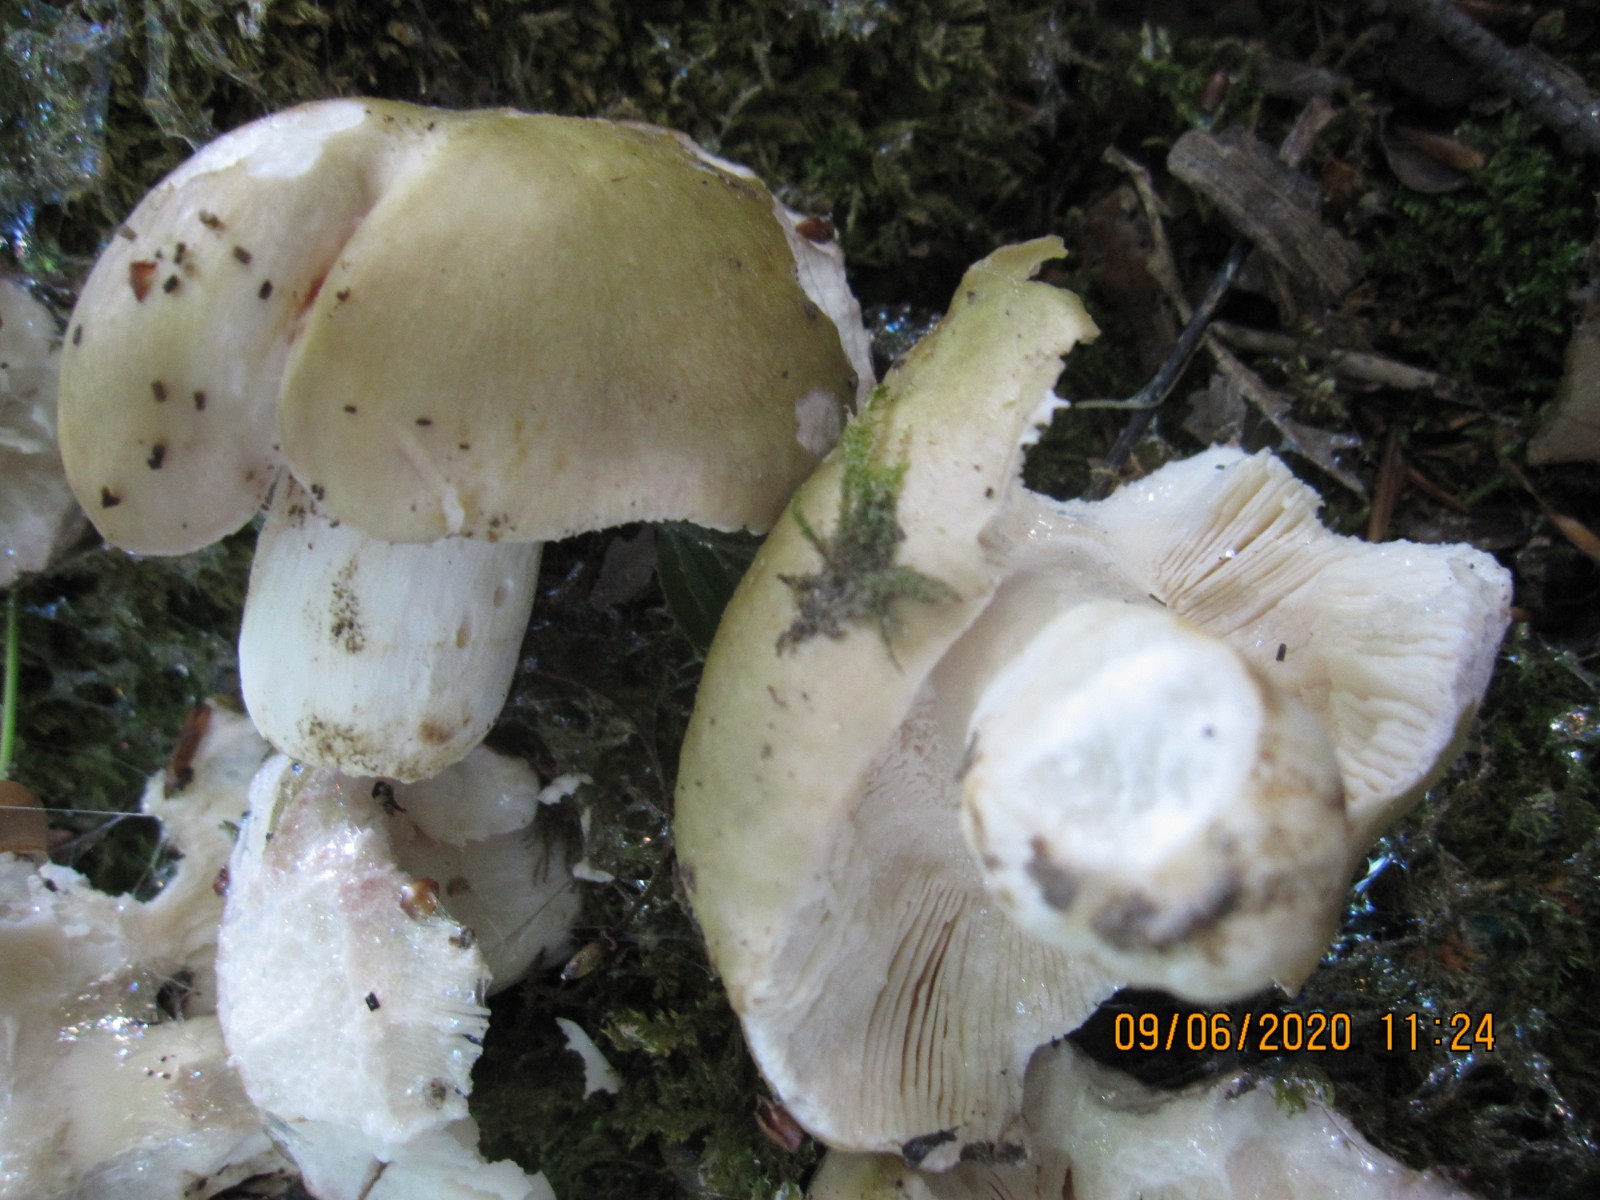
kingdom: Fungi
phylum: Basidiomycota
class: Agaricomycetes
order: Russulales
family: Russulaceae
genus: Russula
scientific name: Russula heterophylla
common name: gaffelbladet skørhat
